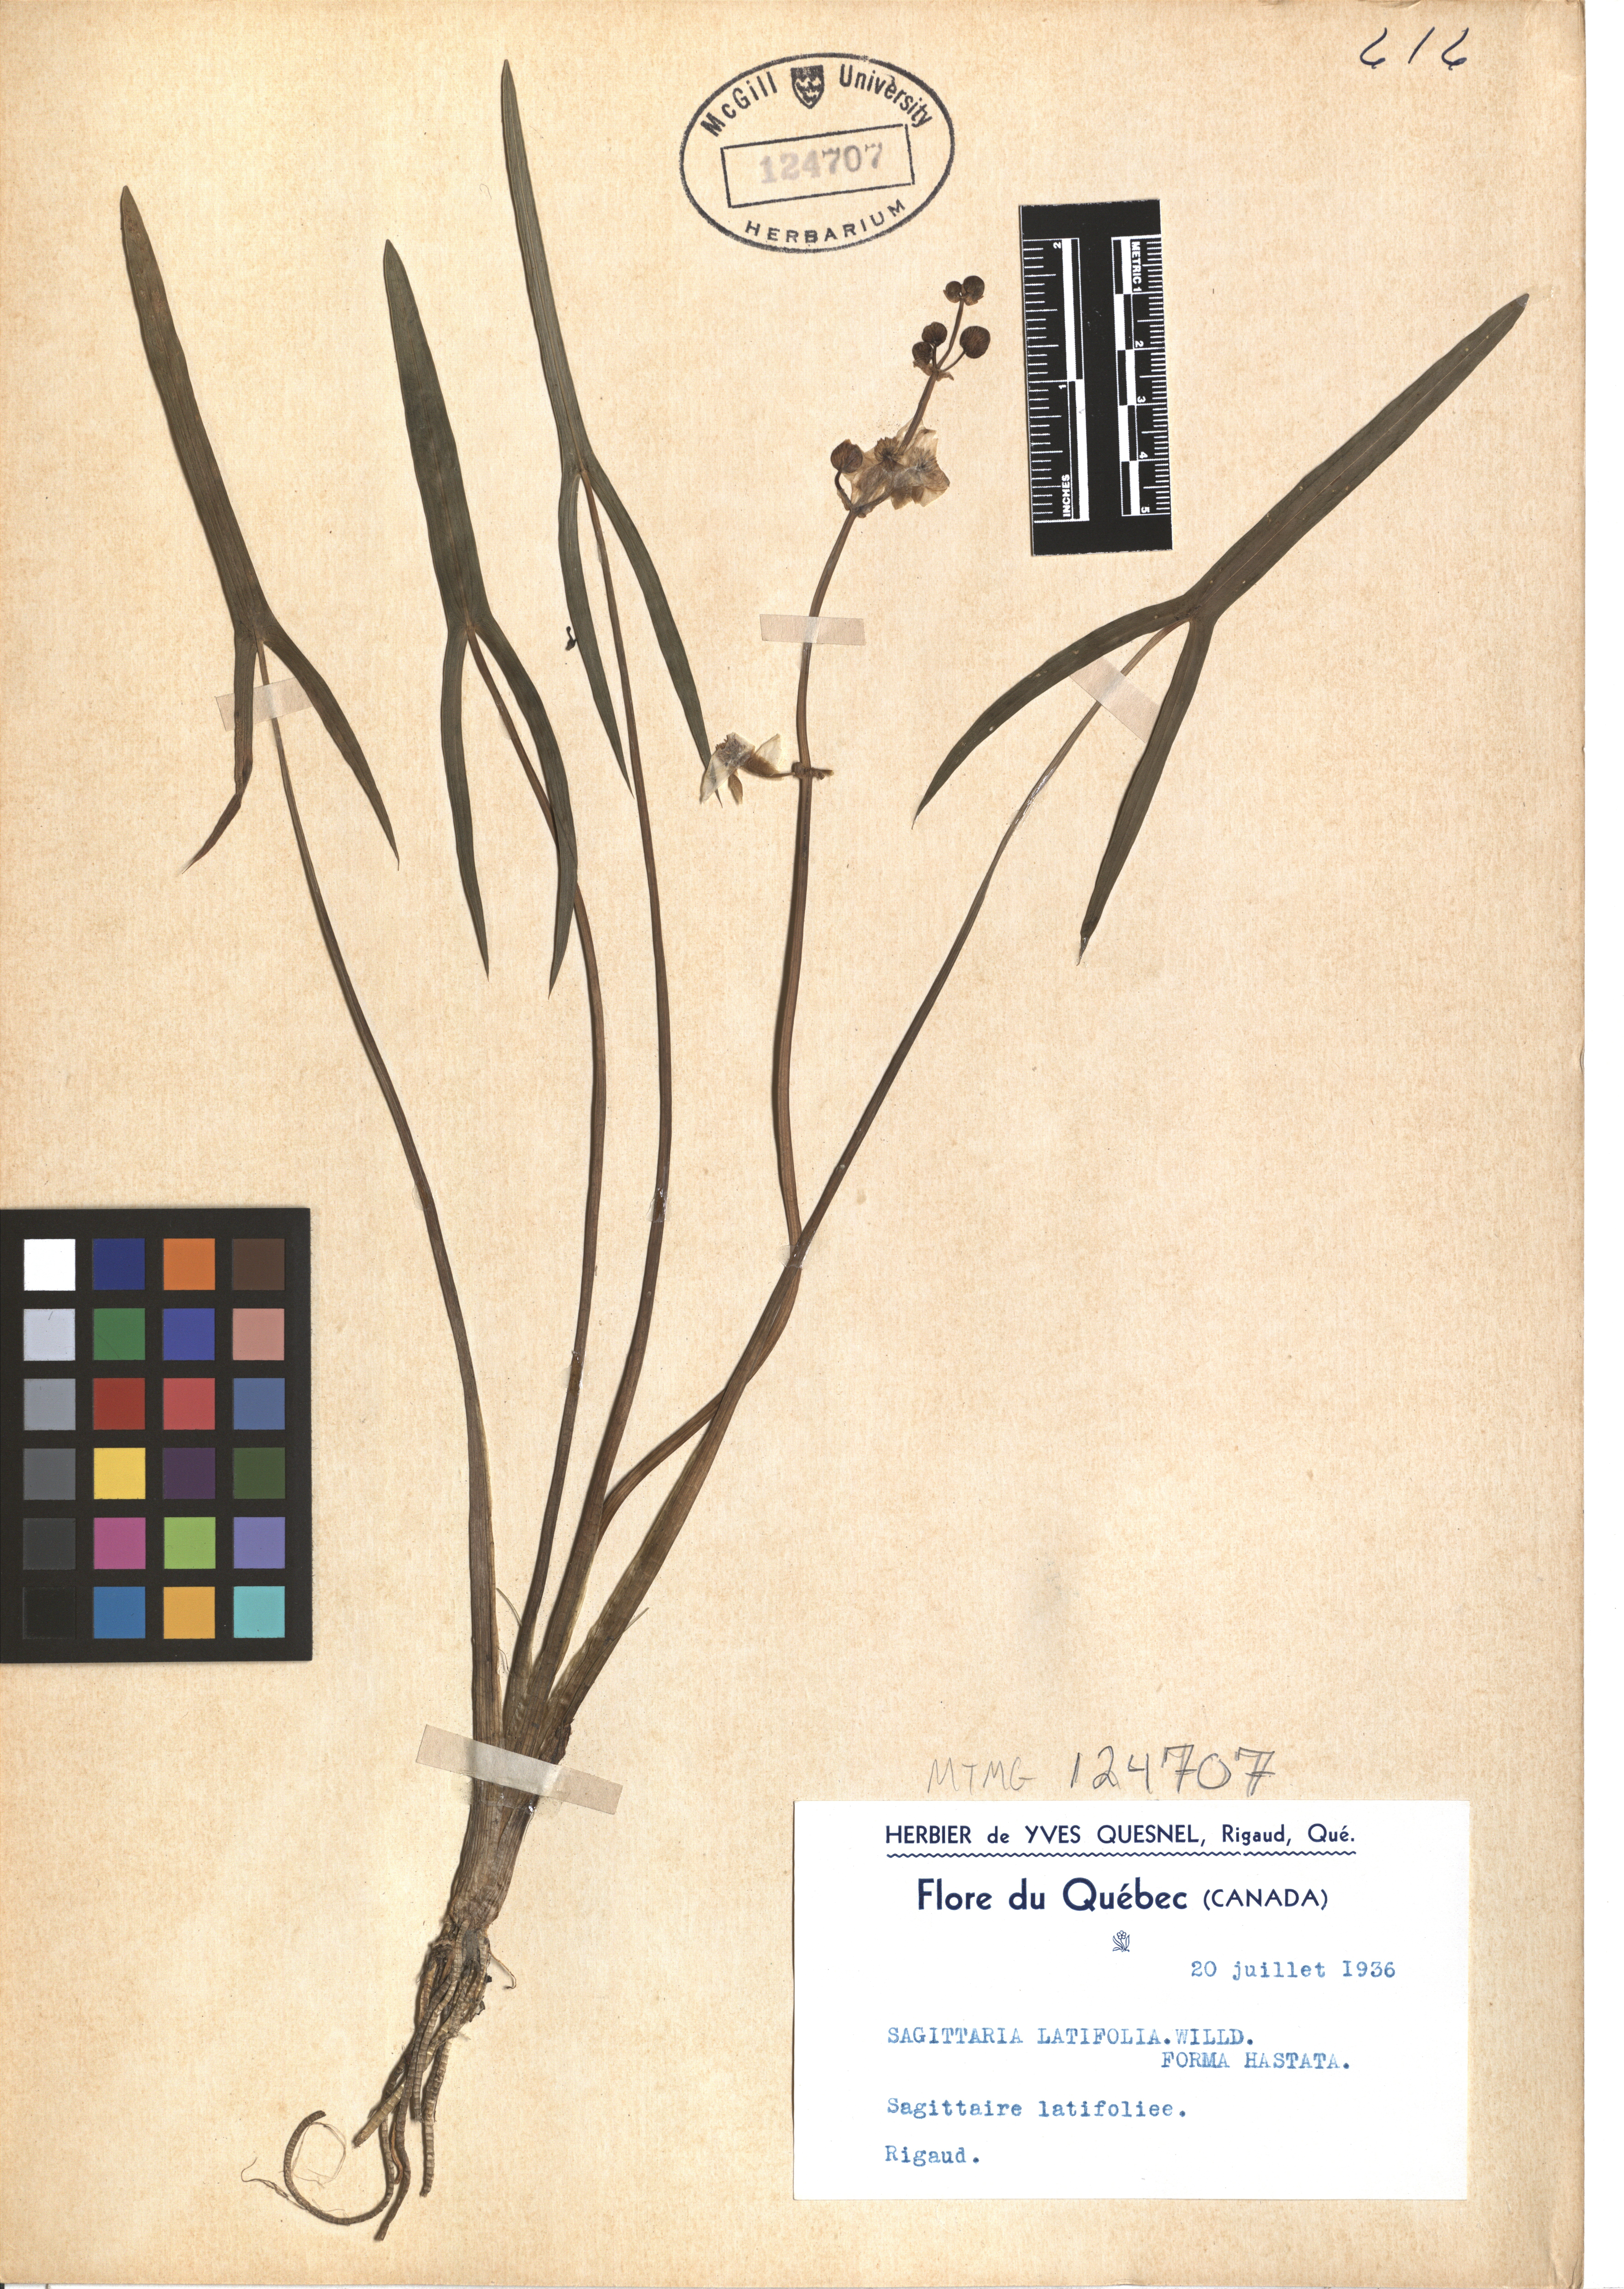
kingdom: Plantae
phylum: Tracheophyta
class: Liliopsida
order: Alismatales
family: Alismataceae
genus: Sagittaria
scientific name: Sagittaria latifolia
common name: Duck-potato
